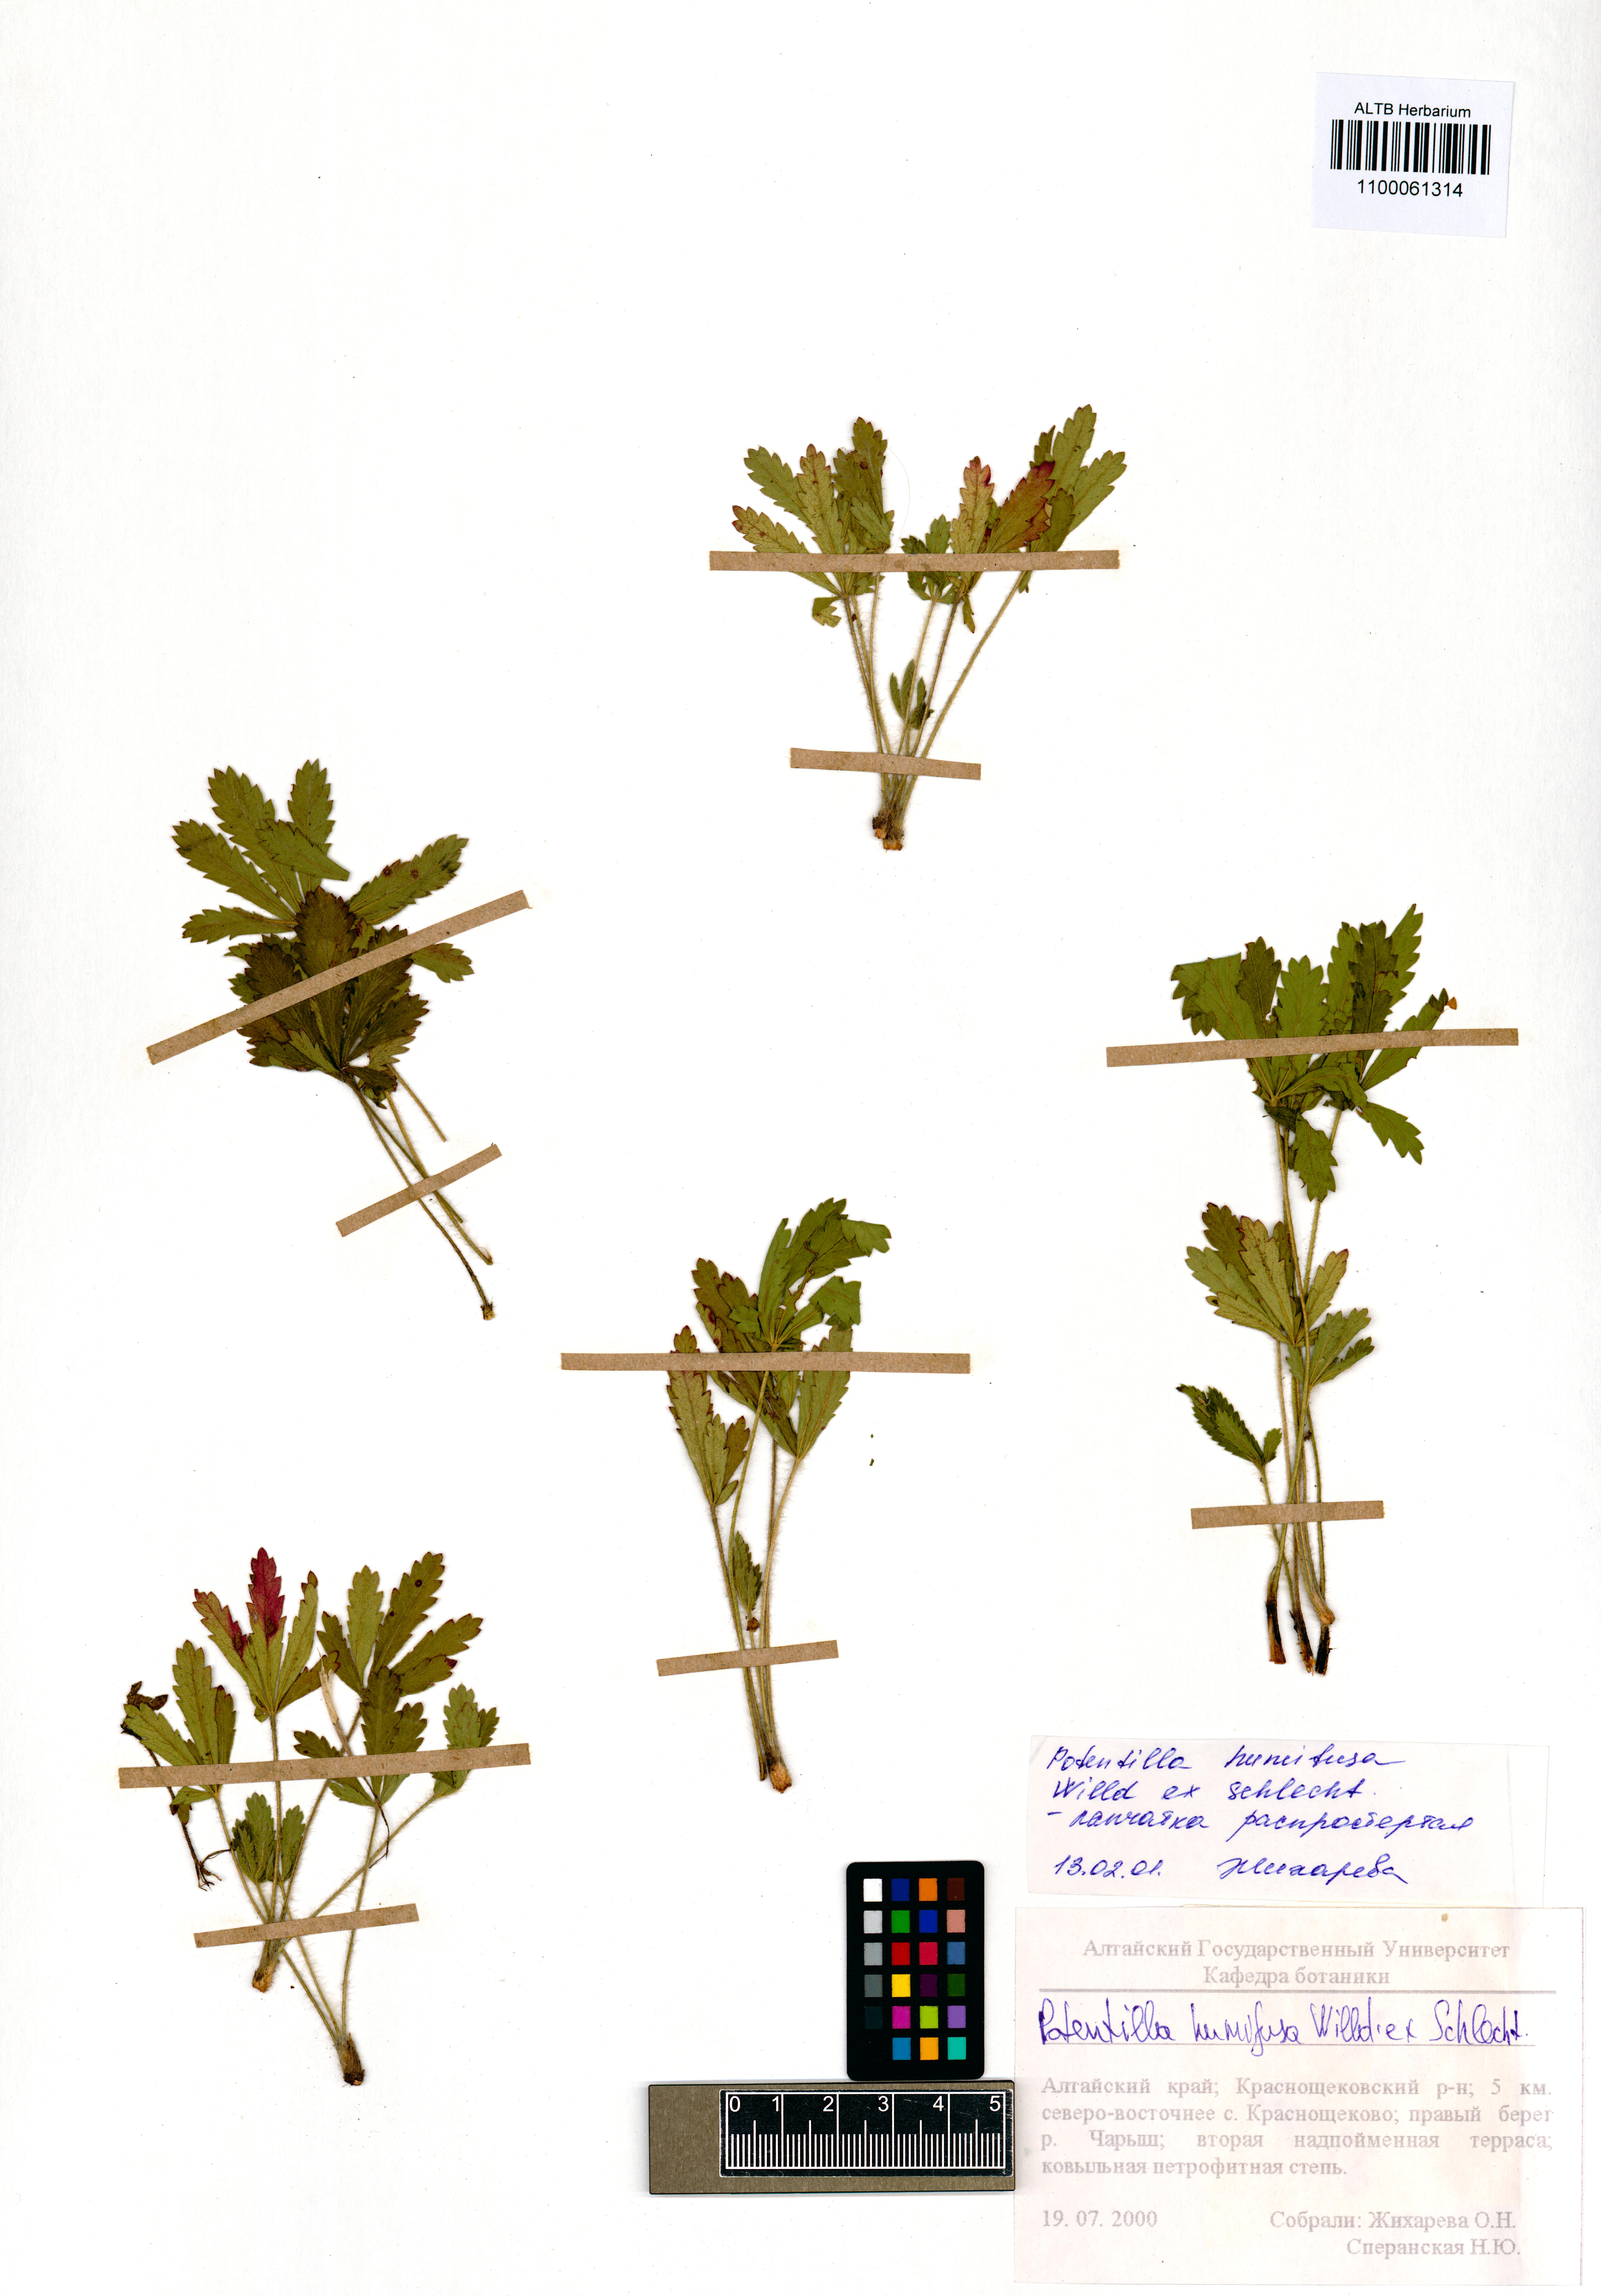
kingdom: Plantae
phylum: Tracheophyta
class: Magnoliopsida
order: Rosales
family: Rosaceae
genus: Potentilla
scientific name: Potentilla humifusa
